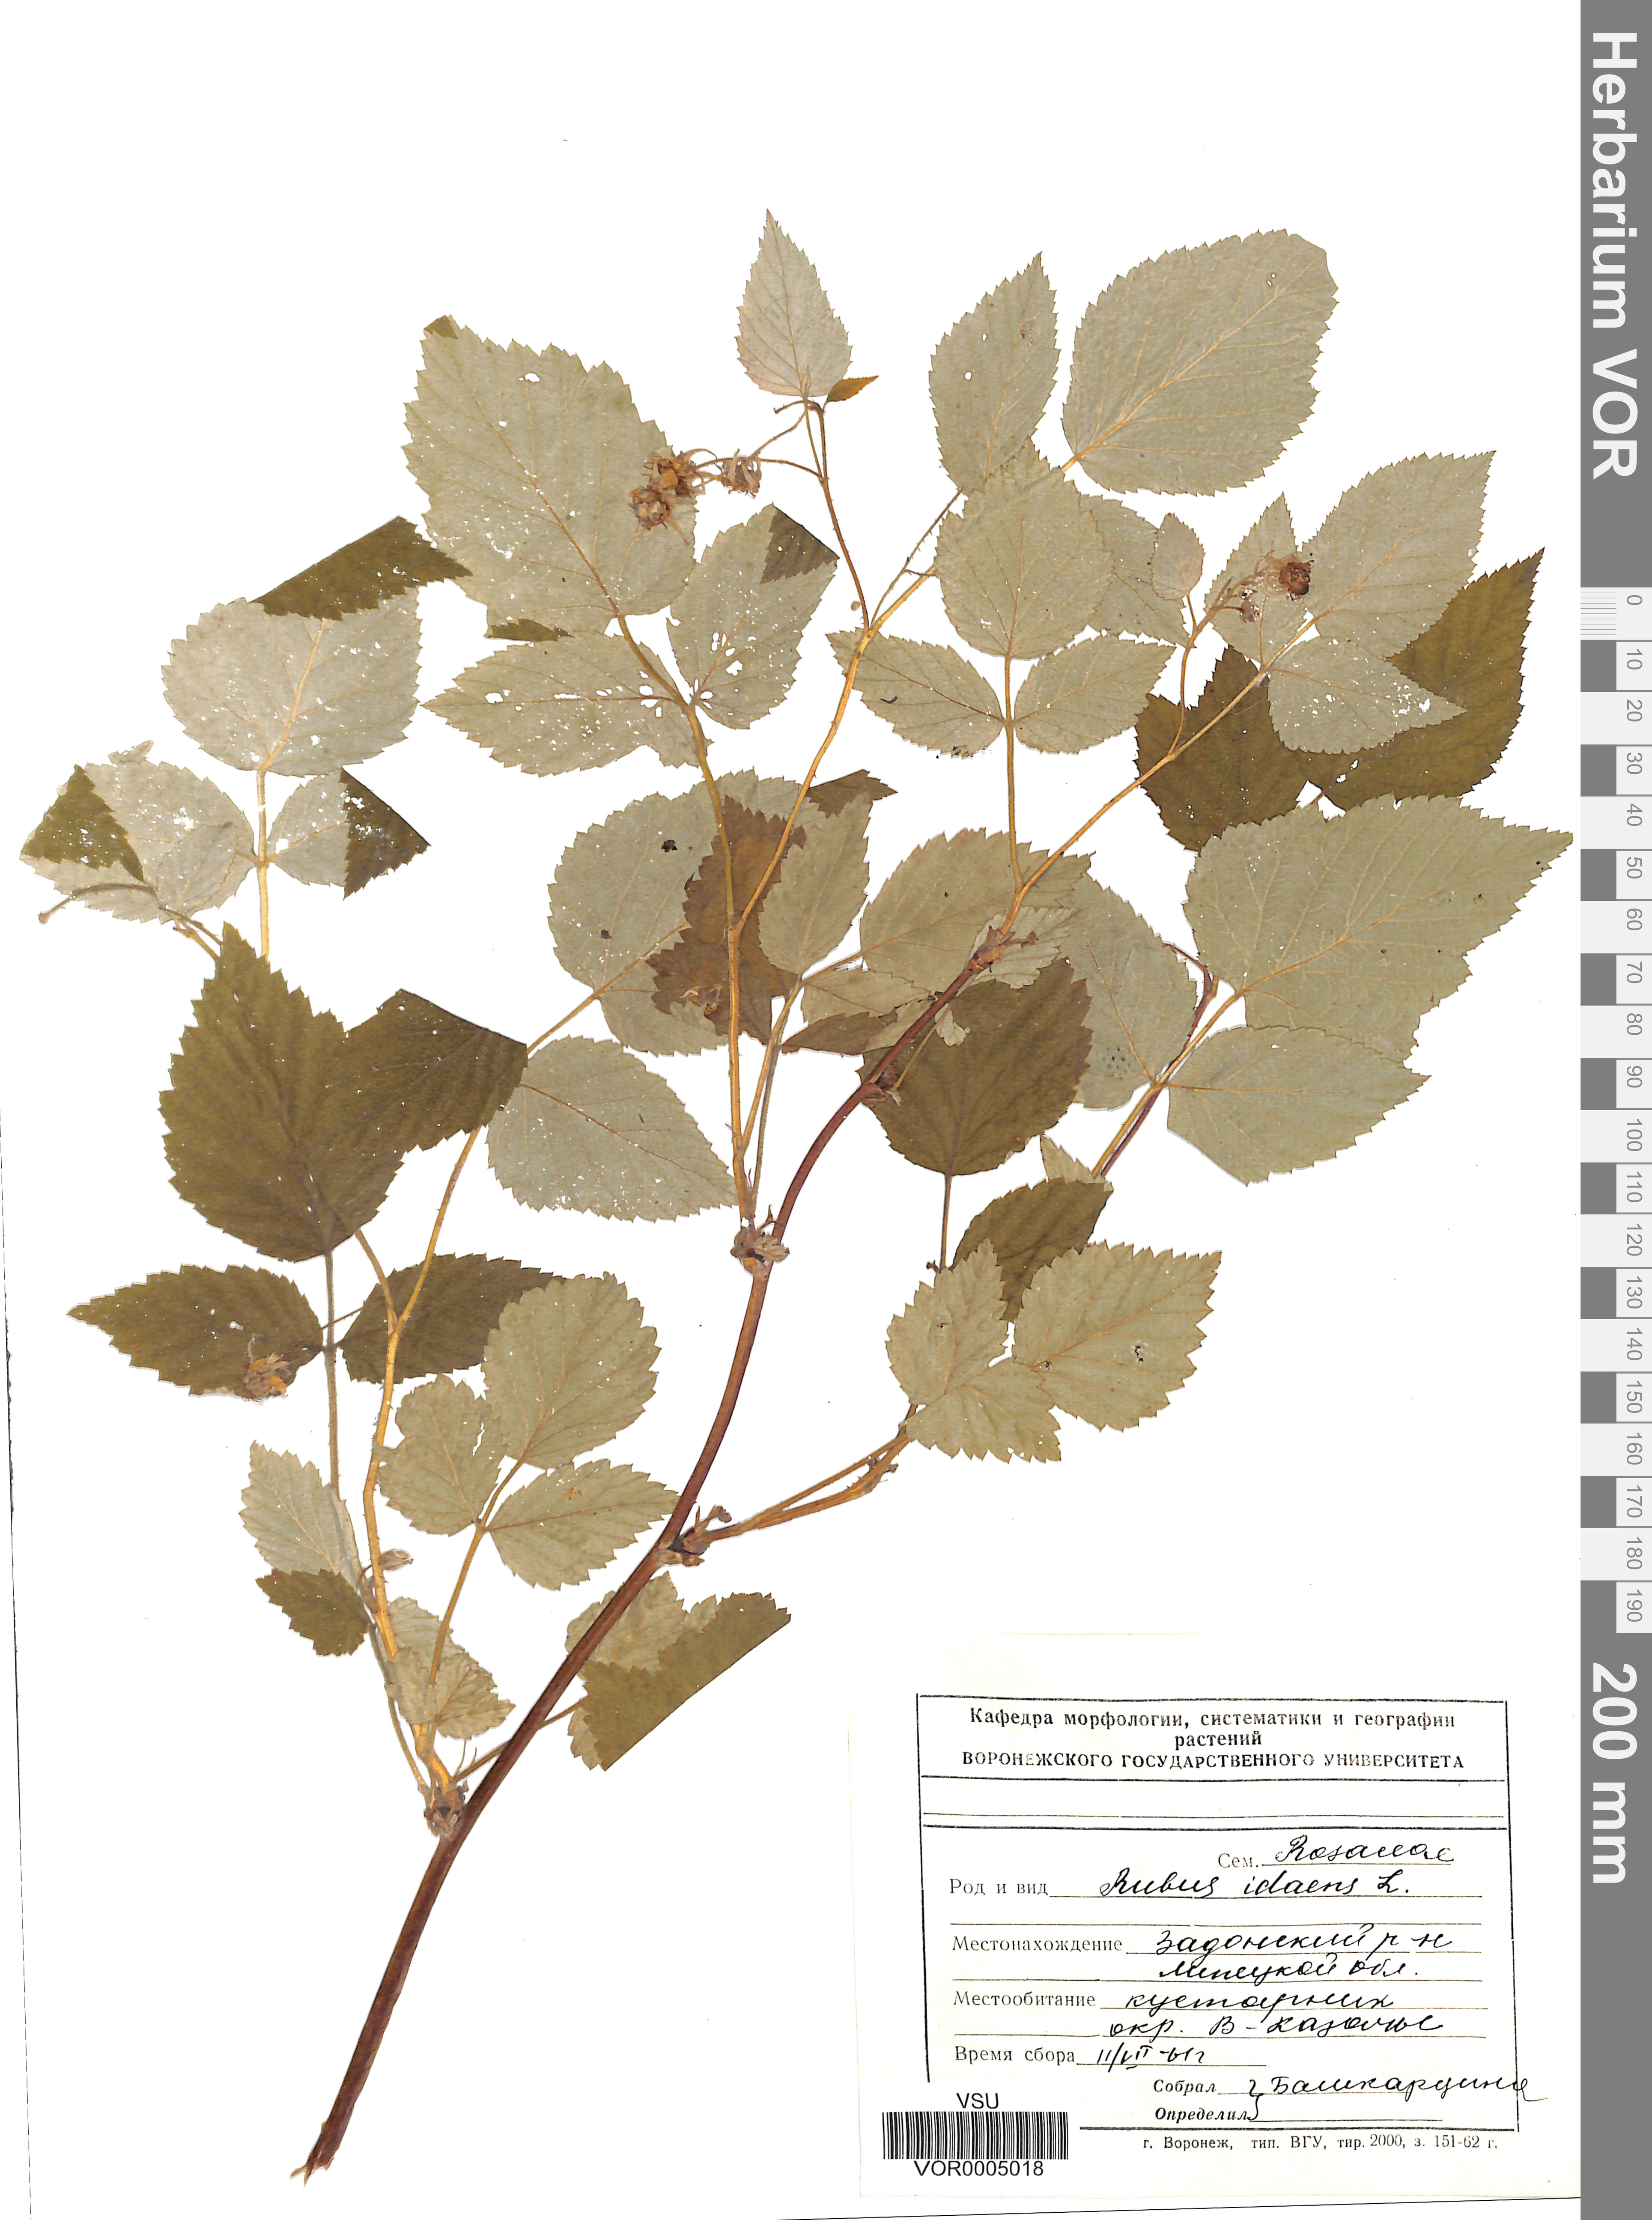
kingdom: Plantae
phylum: Tracheophyta
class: Magnoliopsida
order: Rosales
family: Rosaceae
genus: Rubus
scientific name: Rubus idaeus
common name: Raspberry
